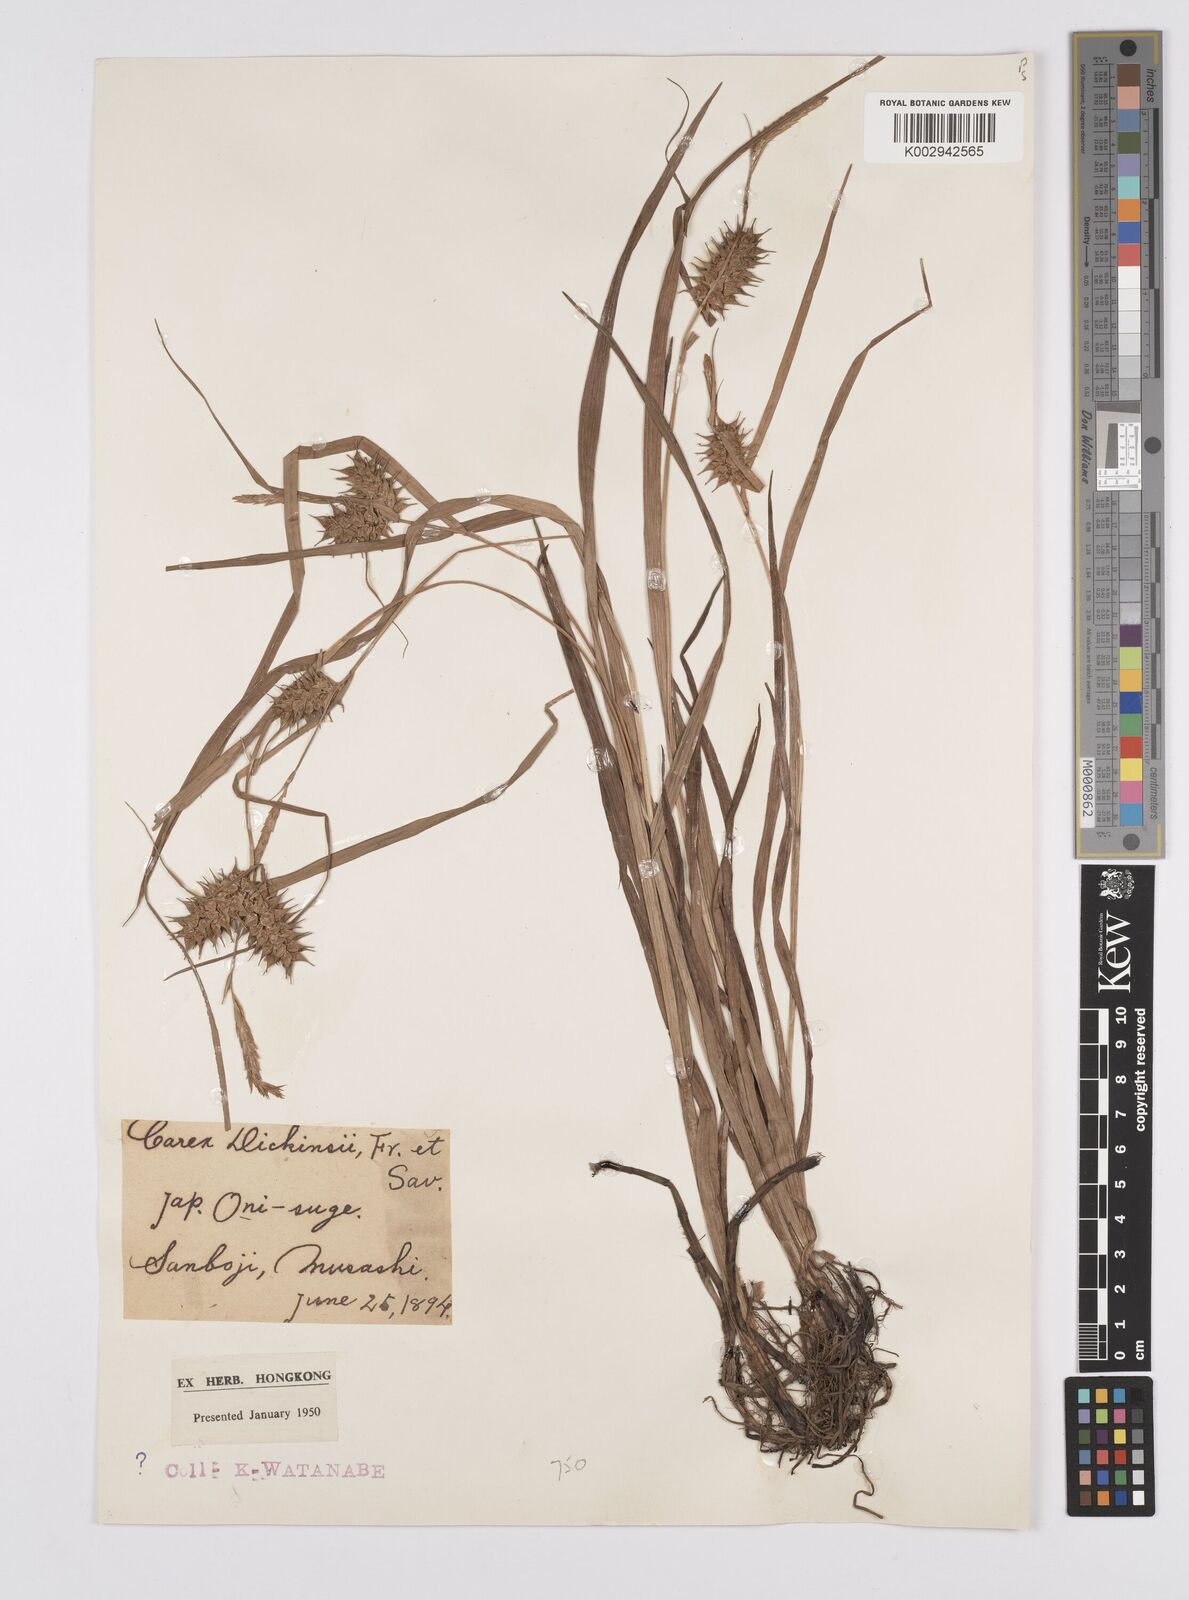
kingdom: Plantae
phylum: Tracheophyta
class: Liliopsida
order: Poales
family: Cyperaceae
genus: Carex
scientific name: Carex dickinsii
